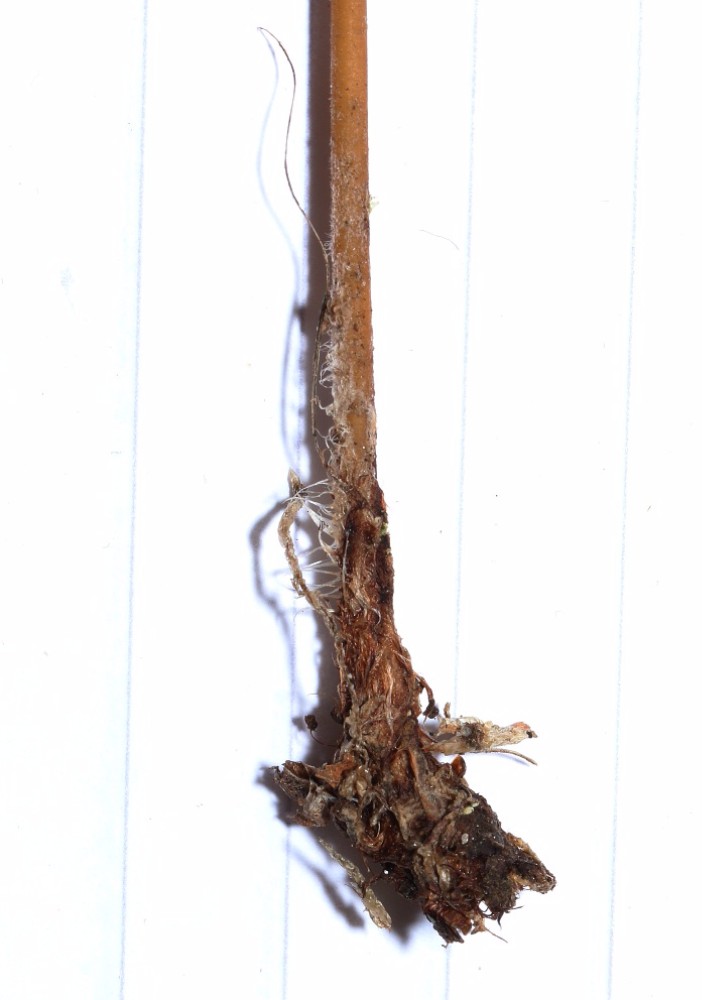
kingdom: Fungi
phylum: Basidiomycota
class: Agaricomycetes
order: Agaricales
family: Typhulaceae
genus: Typhula
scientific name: Typhula fistulosa
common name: pibet rørkølle
